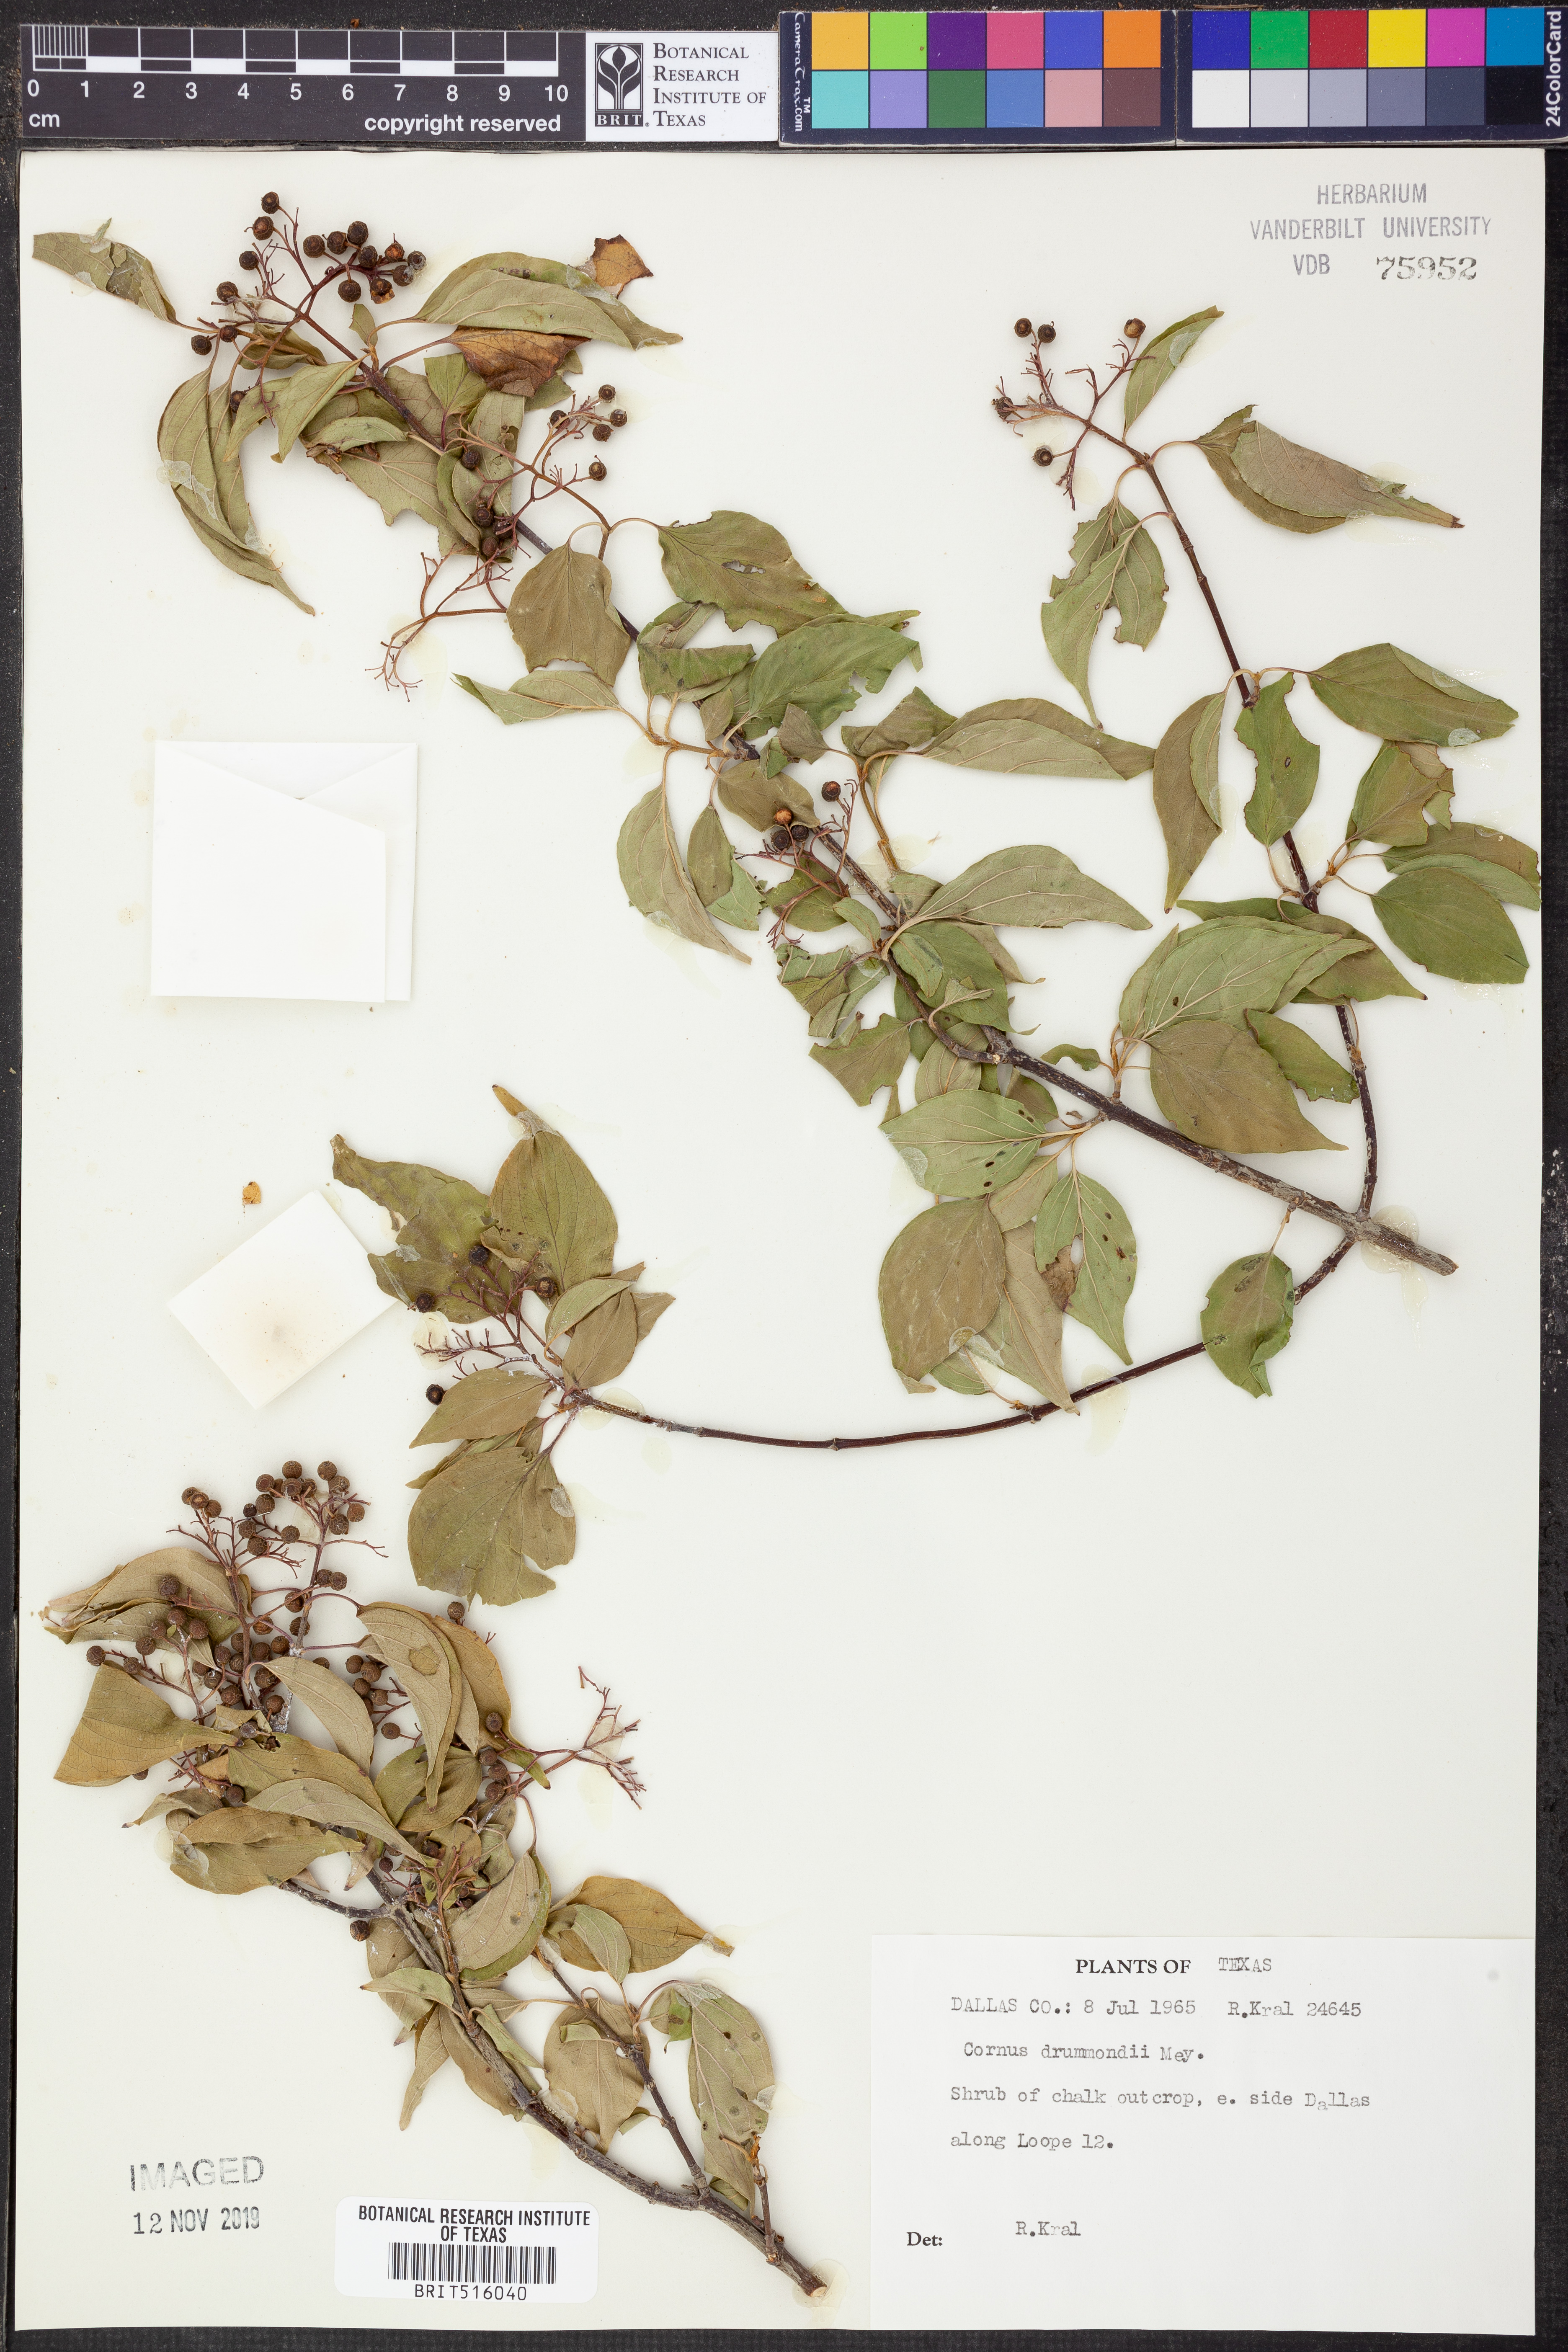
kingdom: Plantae
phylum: Tracheophyta
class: Magnoliopsida
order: Cornales
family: Cornaceae
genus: Cornus
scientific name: Cornus drummondii
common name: Rough-leaf dogwood
